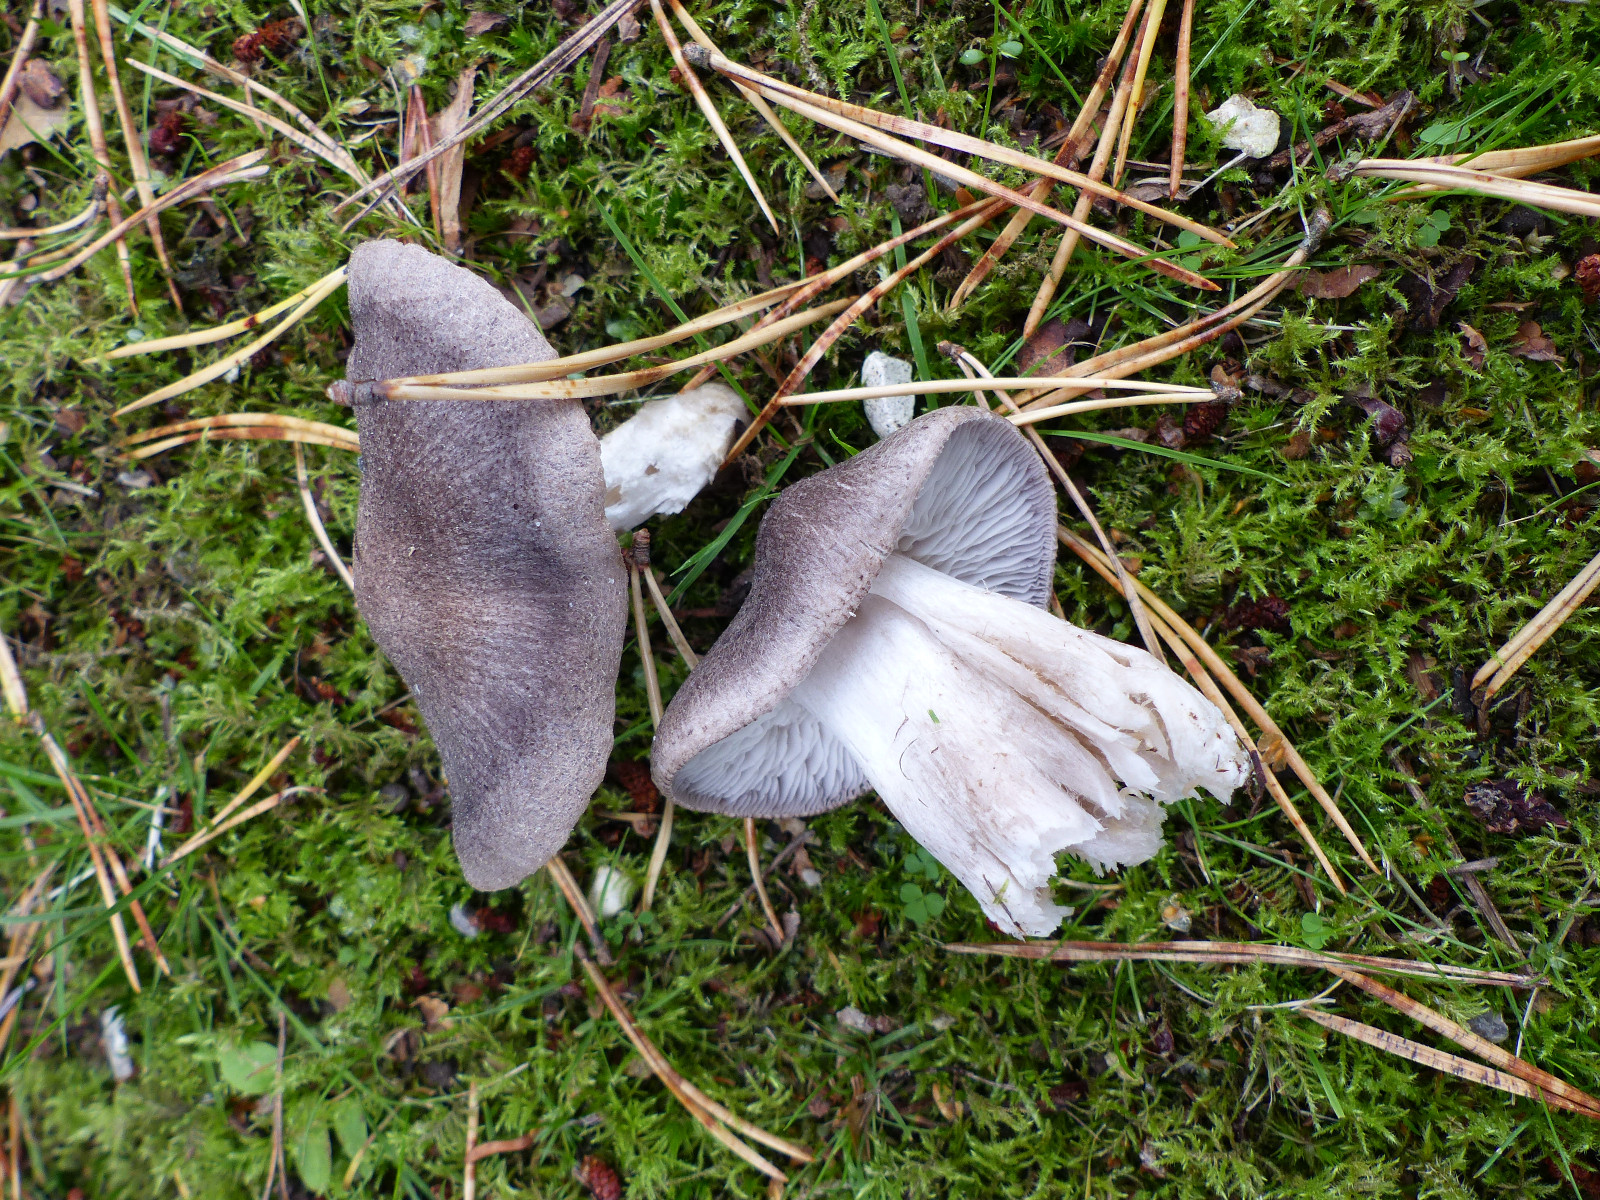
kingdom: Fungi
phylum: Basidiomycota
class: Agaricomycetes
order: Agaricales
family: Tricholomataceae
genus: Tricholoma
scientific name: Tricholoma terreum
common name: jordfarvet ridderhat
